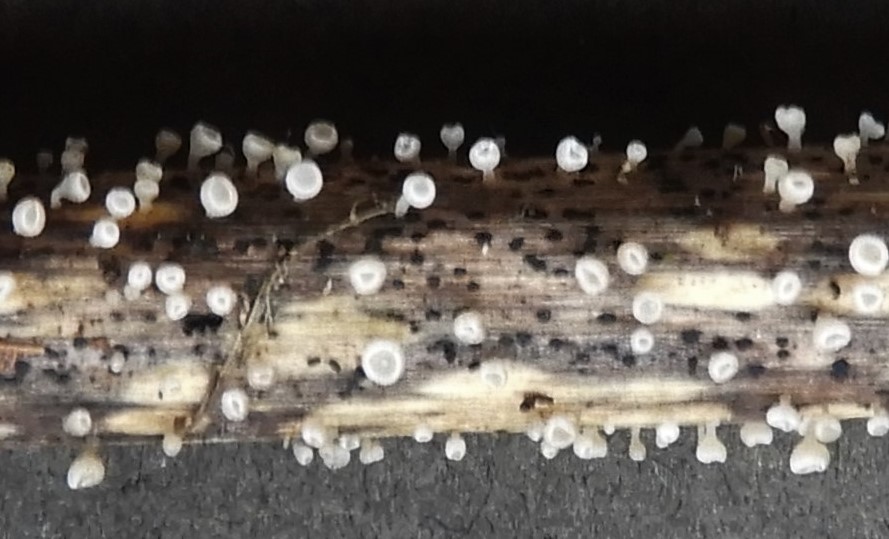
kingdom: Fungi
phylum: Ascomycota
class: Leotiomycetes
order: Helotiales
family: Helotiaceae
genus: Cyathicula
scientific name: Cyathicula cyathoidea
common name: pokal-stilkskive
